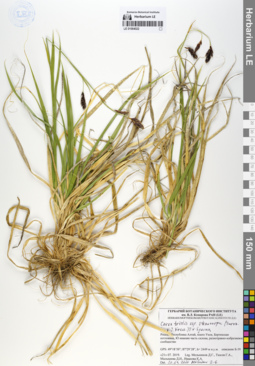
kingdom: Plantae
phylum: Tracheophyta
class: Liliopsida
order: Poales
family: Cyperaceae
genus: Carex
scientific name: Carex stenocarpa
